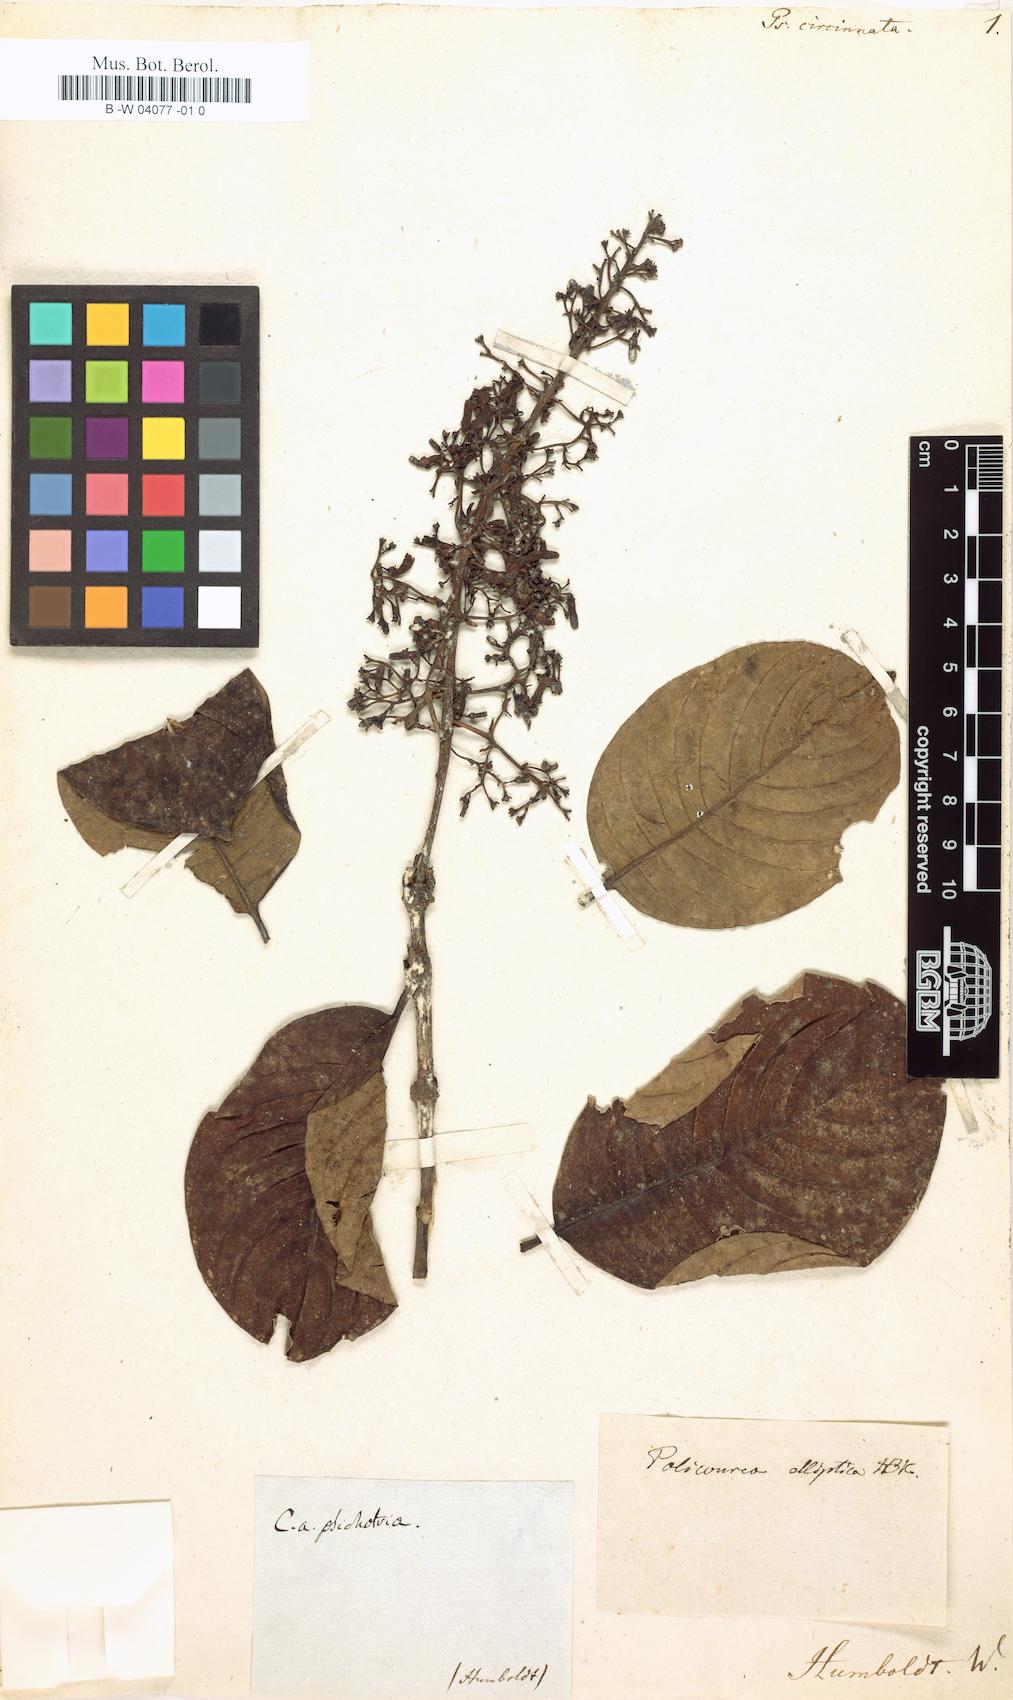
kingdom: Plantae
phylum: Tracheophyta
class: Magnoliopsida
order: Gentianales
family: Rubiaceae
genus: Psychotria
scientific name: Psychotria guianensis
